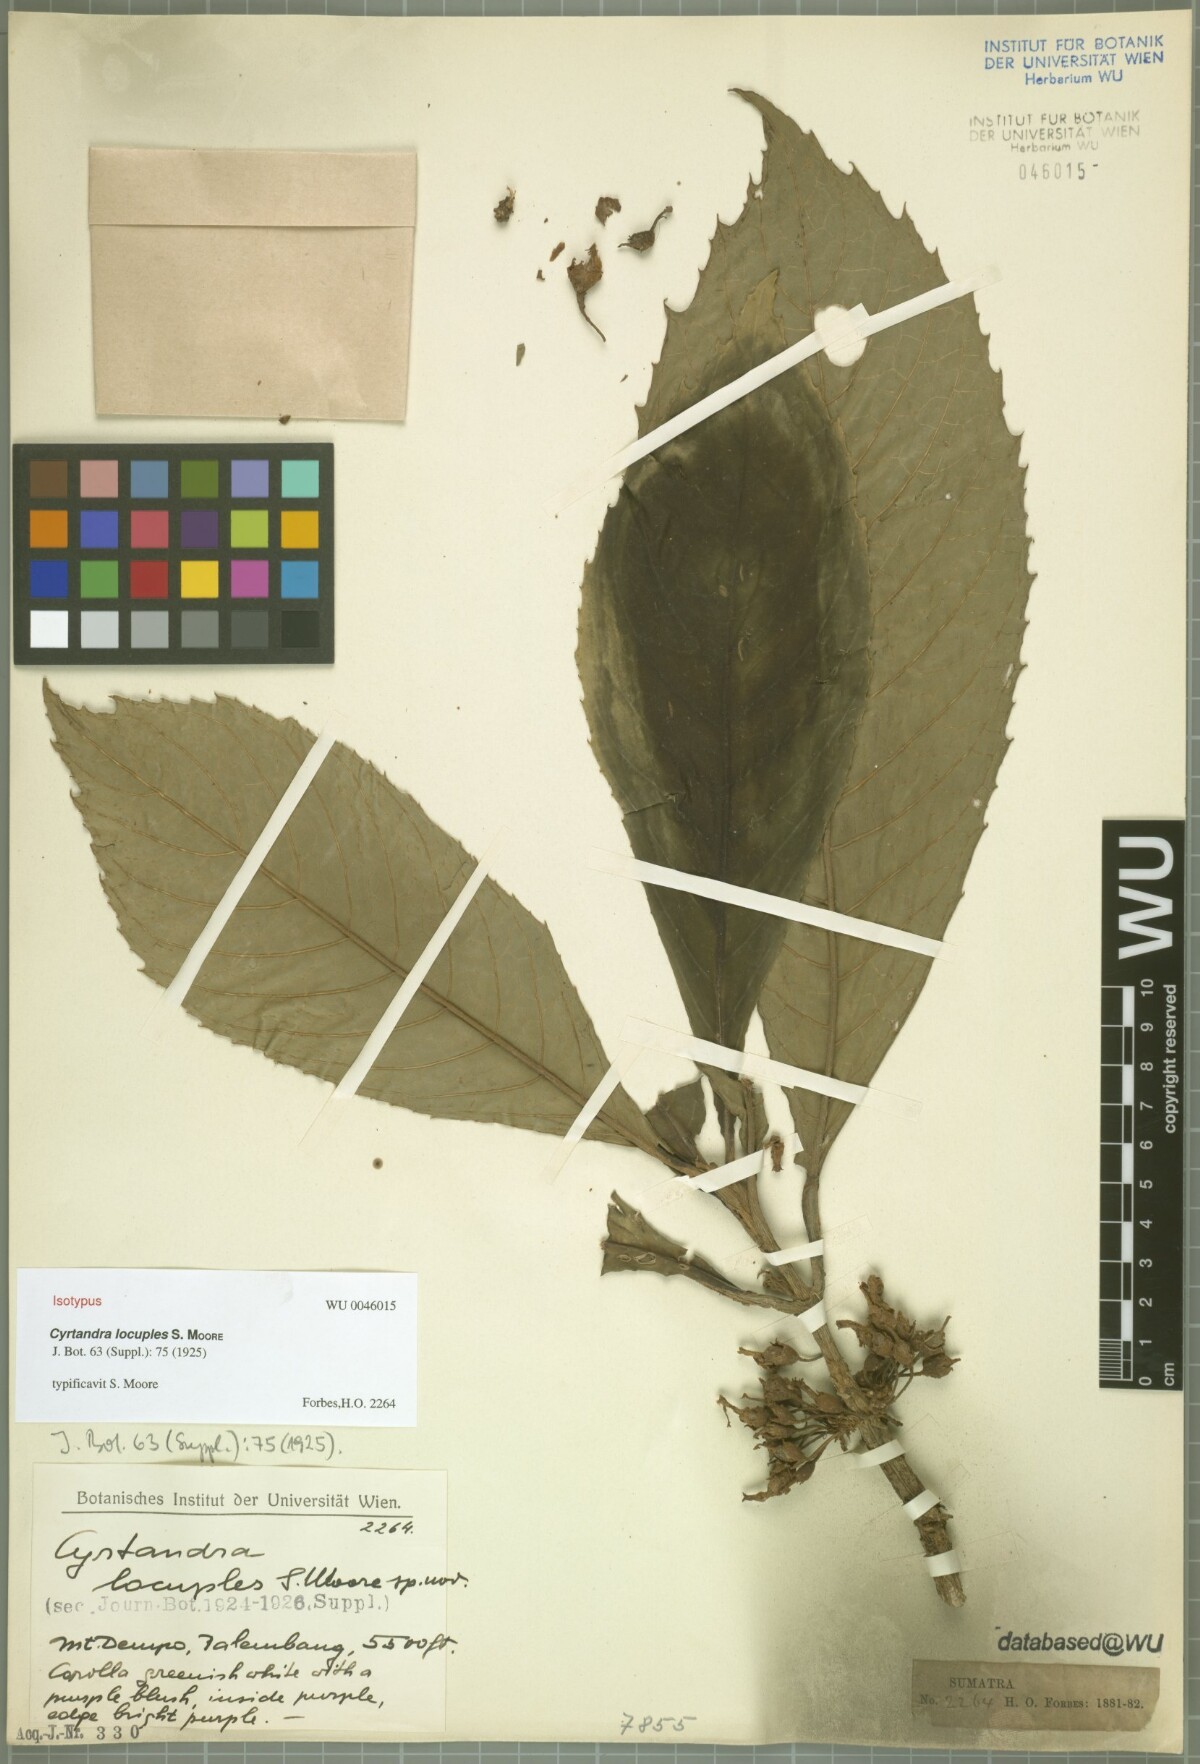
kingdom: Plantae
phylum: Tracheophyta
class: Magnoliopsida
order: Lamiales
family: Gesneriaceae
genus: Cyrtandra
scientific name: Cyrtandra locuples
